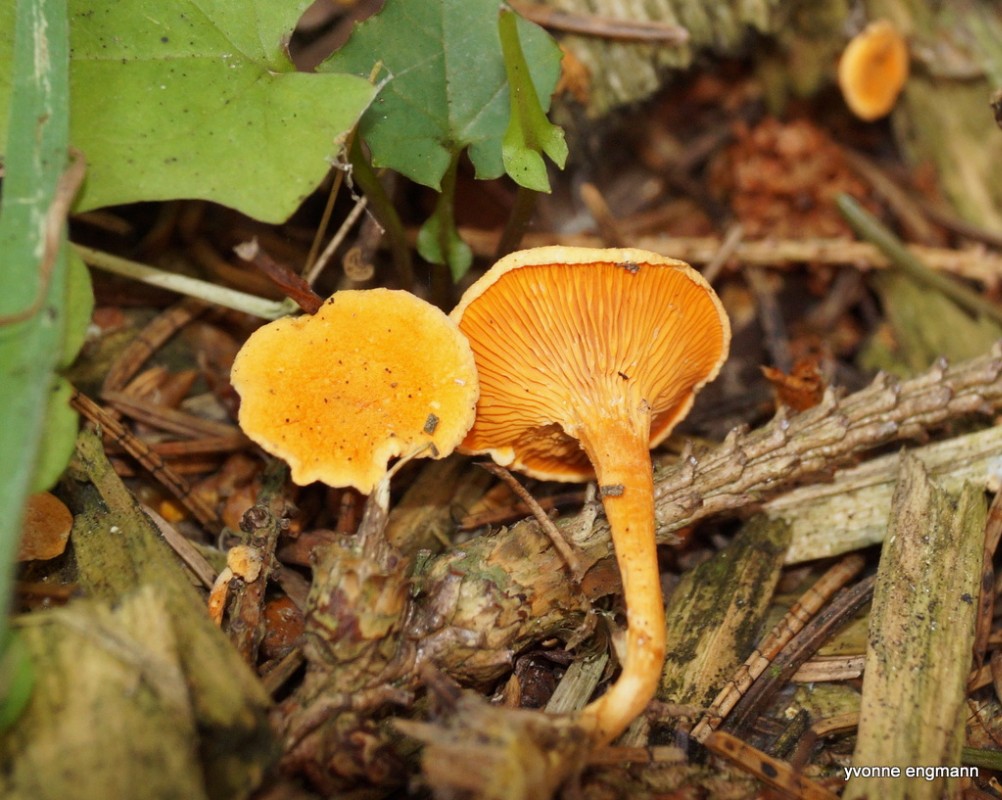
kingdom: Fungi
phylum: Basidiomycota
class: Agaricomycetes
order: Boletales
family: Hygrophoropsidaceae
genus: Hygrophoropsis
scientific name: Hygrophoropsis aurantiaca
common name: almindelig orangekantarel
